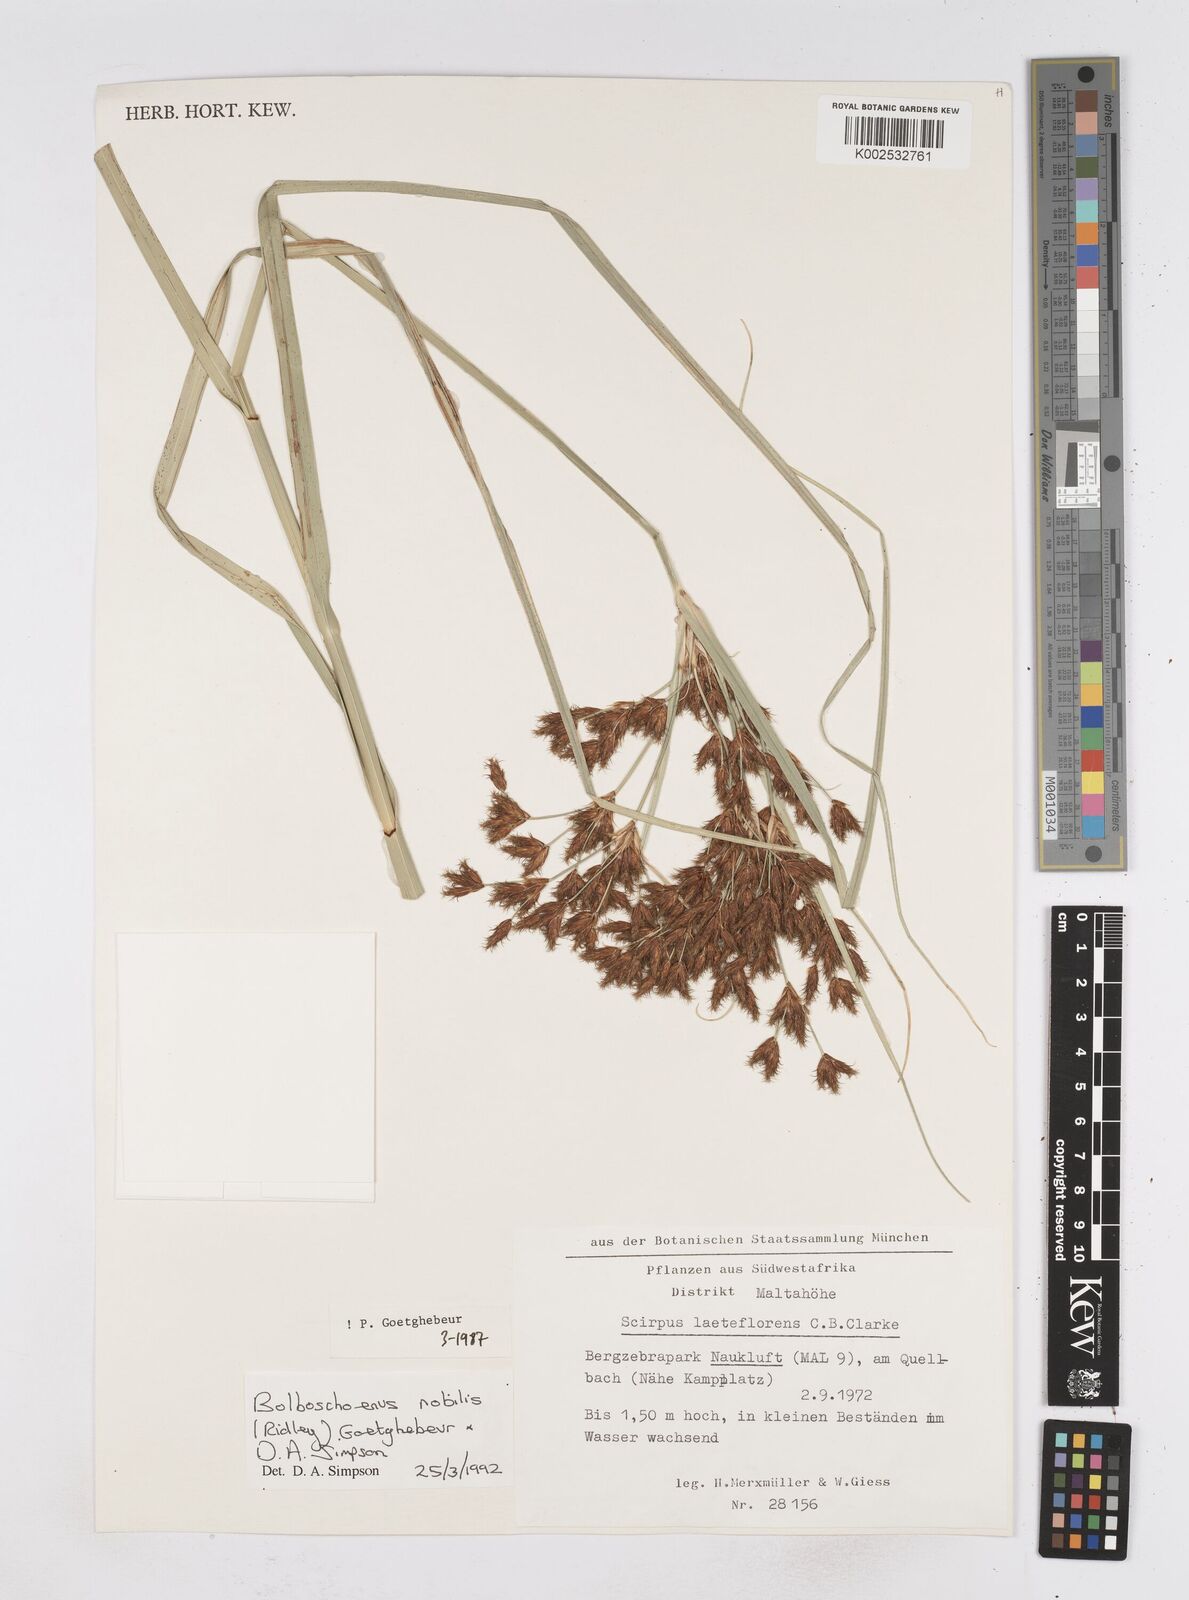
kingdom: Plantae
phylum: Tracheophyta
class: Liliopsida
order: Poales
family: Cyperaceae
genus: Bolboschoenus
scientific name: Bolboschoenus nobilis
